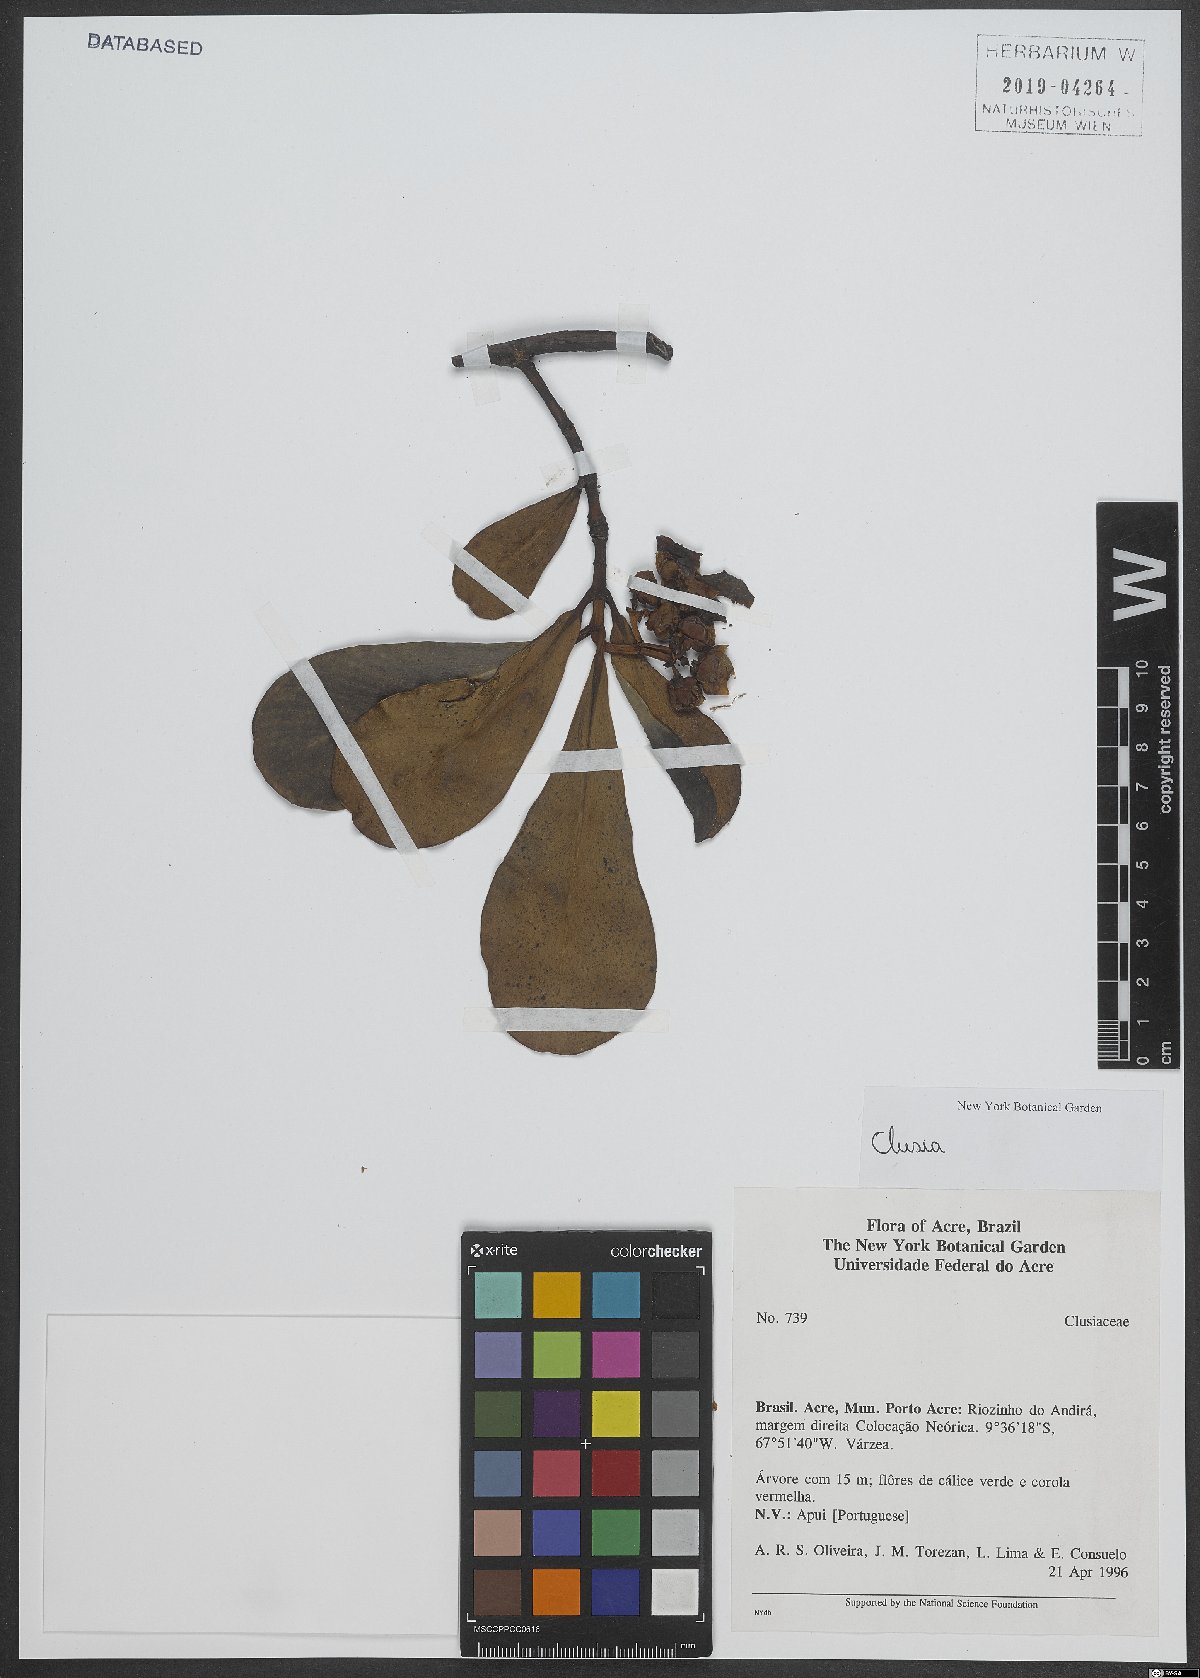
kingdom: Plantae
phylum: Tracheophyta
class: Magnoliopsida
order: Malpighiales
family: Clusiaceae
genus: Clusia
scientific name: Clusia
